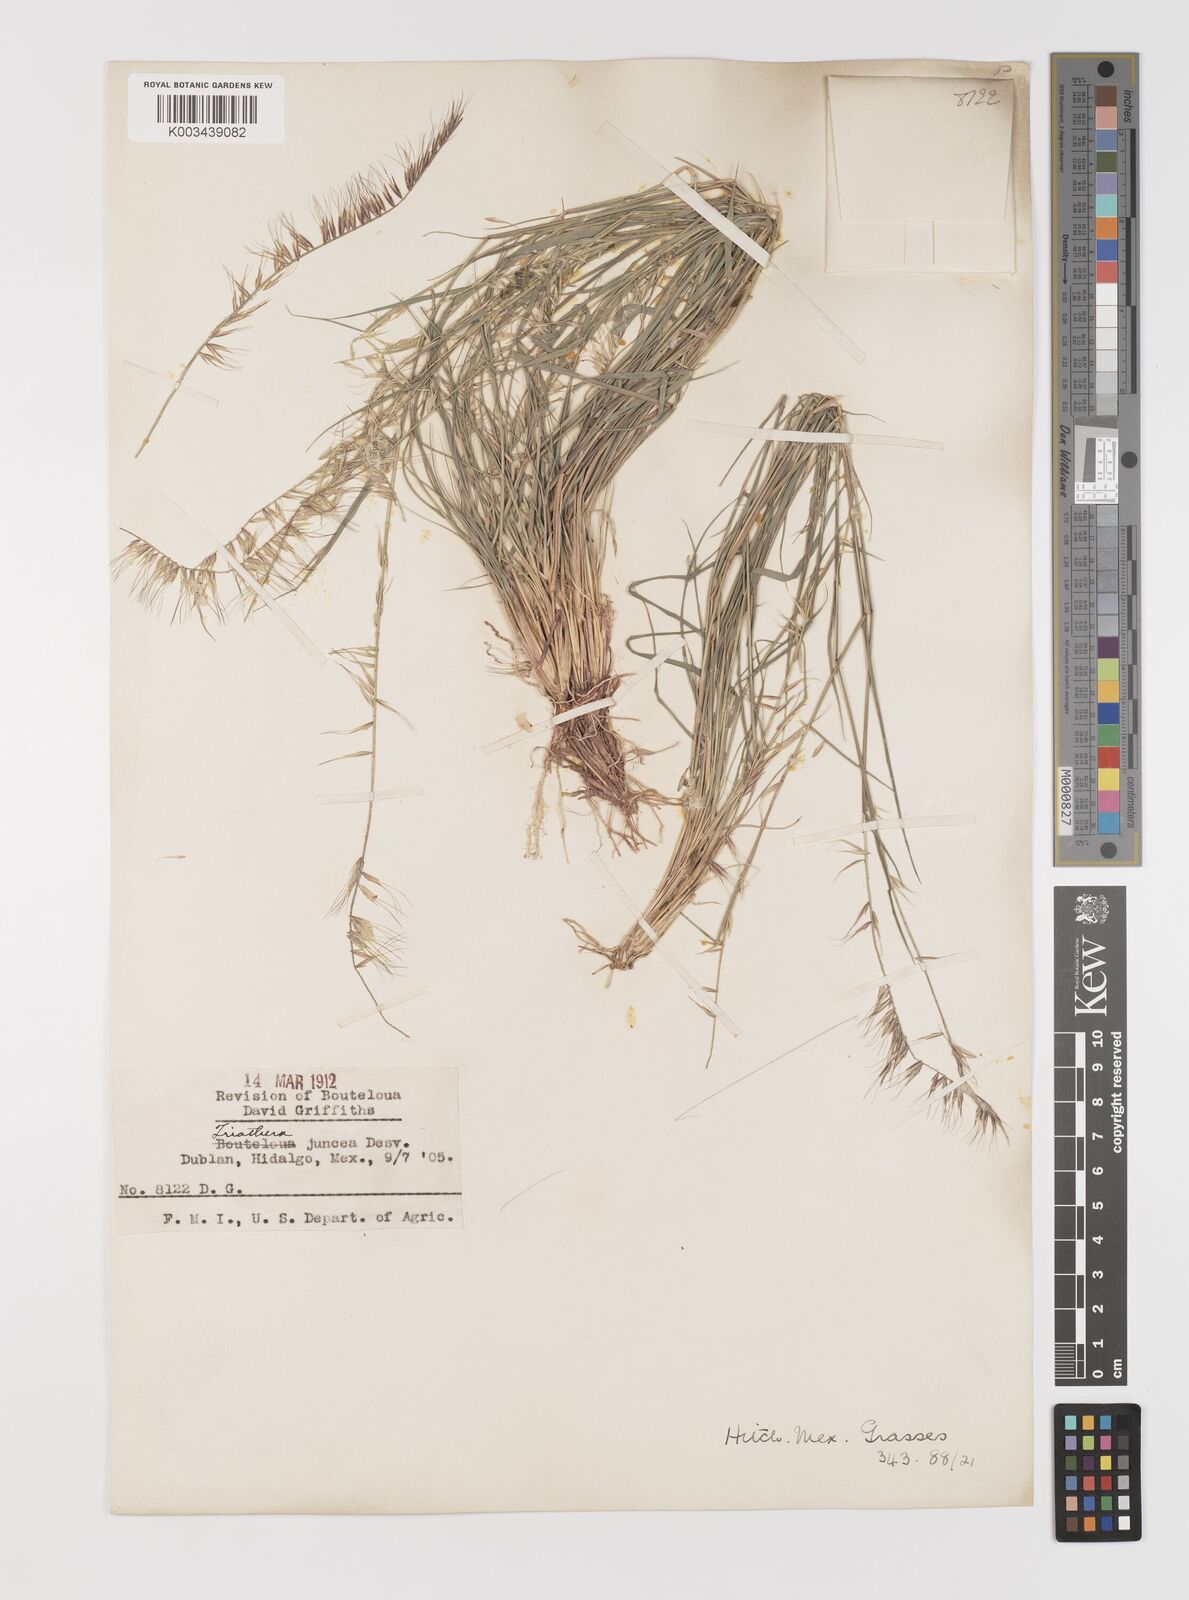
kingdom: Plantae
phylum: Tracheophyta
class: Liliopsida
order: Poales
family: Poaceae
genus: Bouteloua
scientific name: Bouteloua triaena
